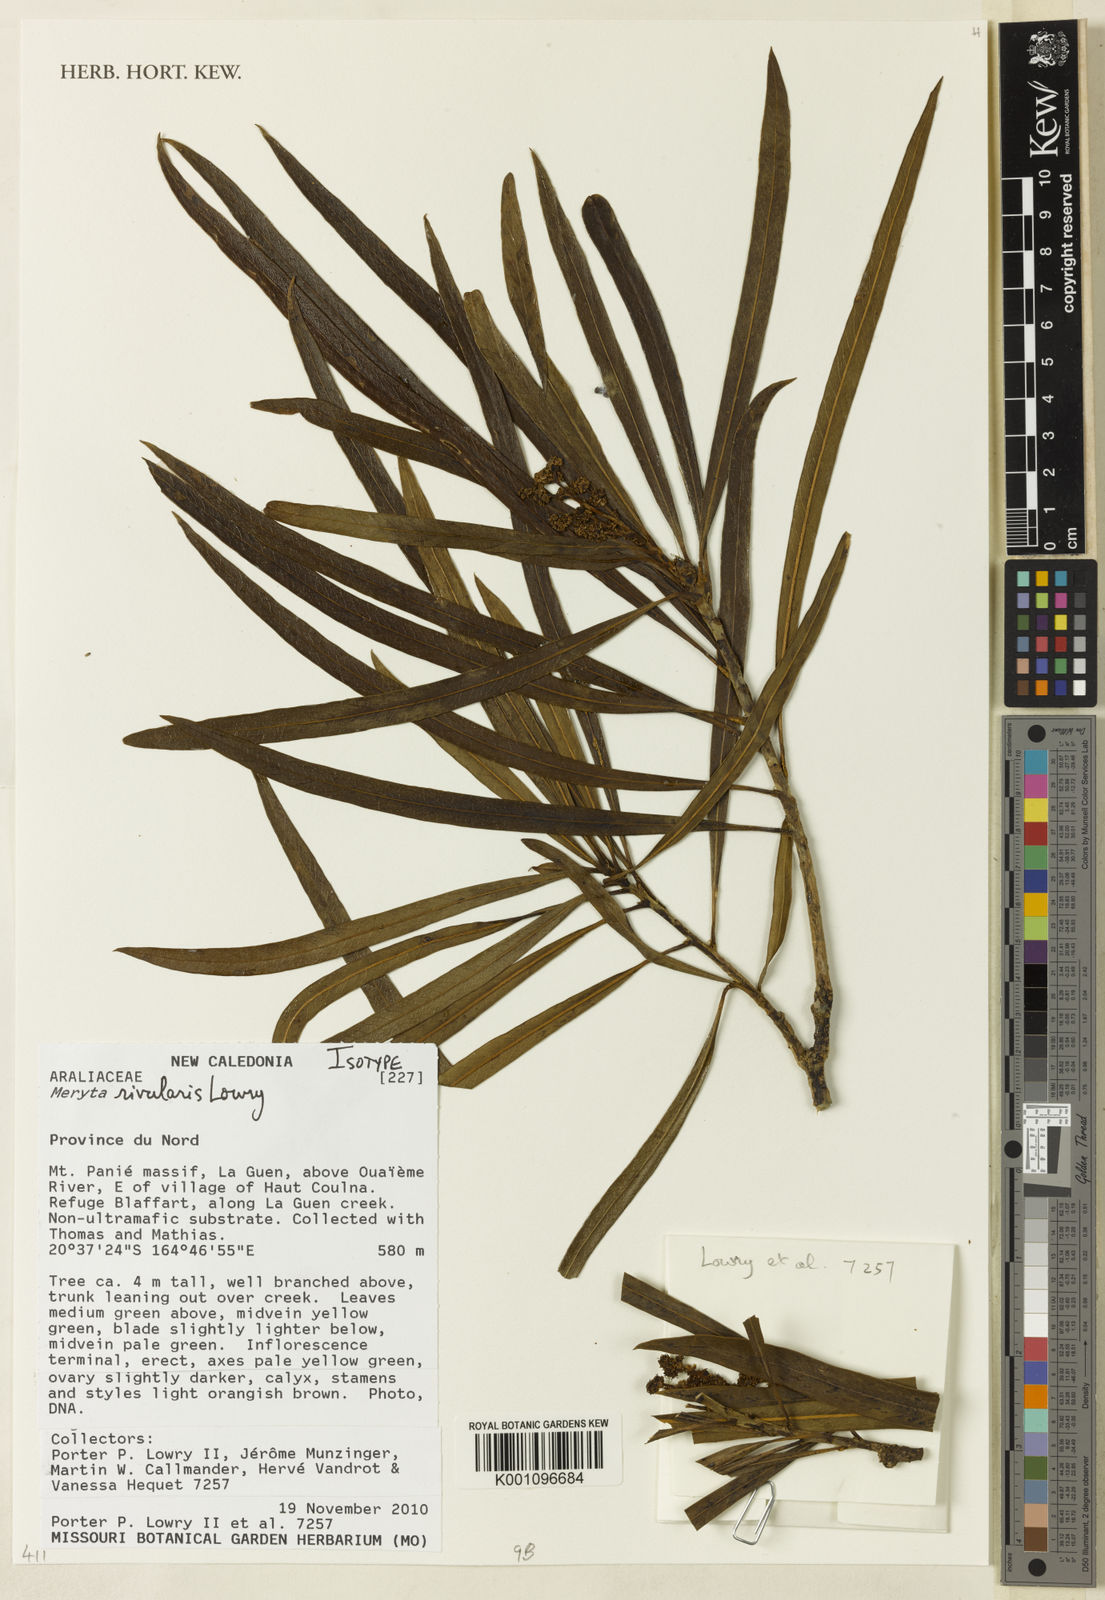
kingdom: Plantae
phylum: Tracheophyta
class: Magnoliopsida
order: Apiales
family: Araliaceae
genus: Meryta
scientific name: Meryta rivularis
